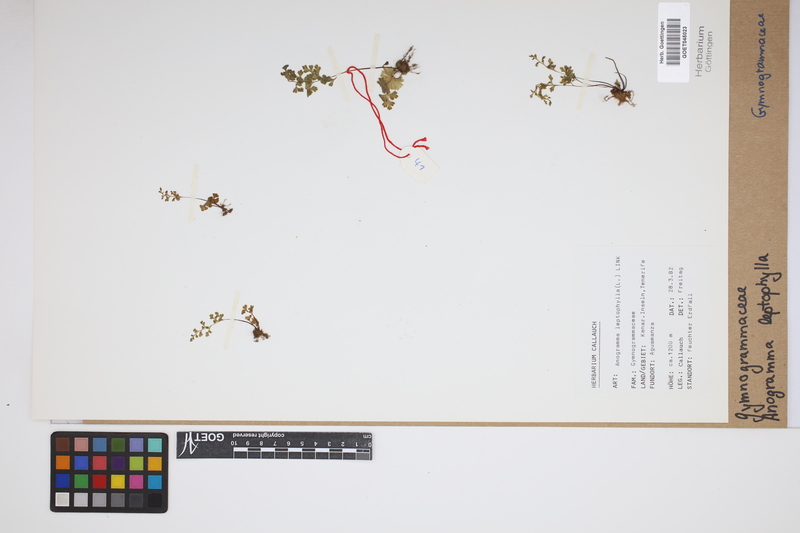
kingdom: Plantae
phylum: Tracheophyta
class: Polypodiopsida
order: Polypodiales
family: Pteridaceae
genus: Anogramma
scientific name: Anogramma leptophylla
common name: Jersey fern
